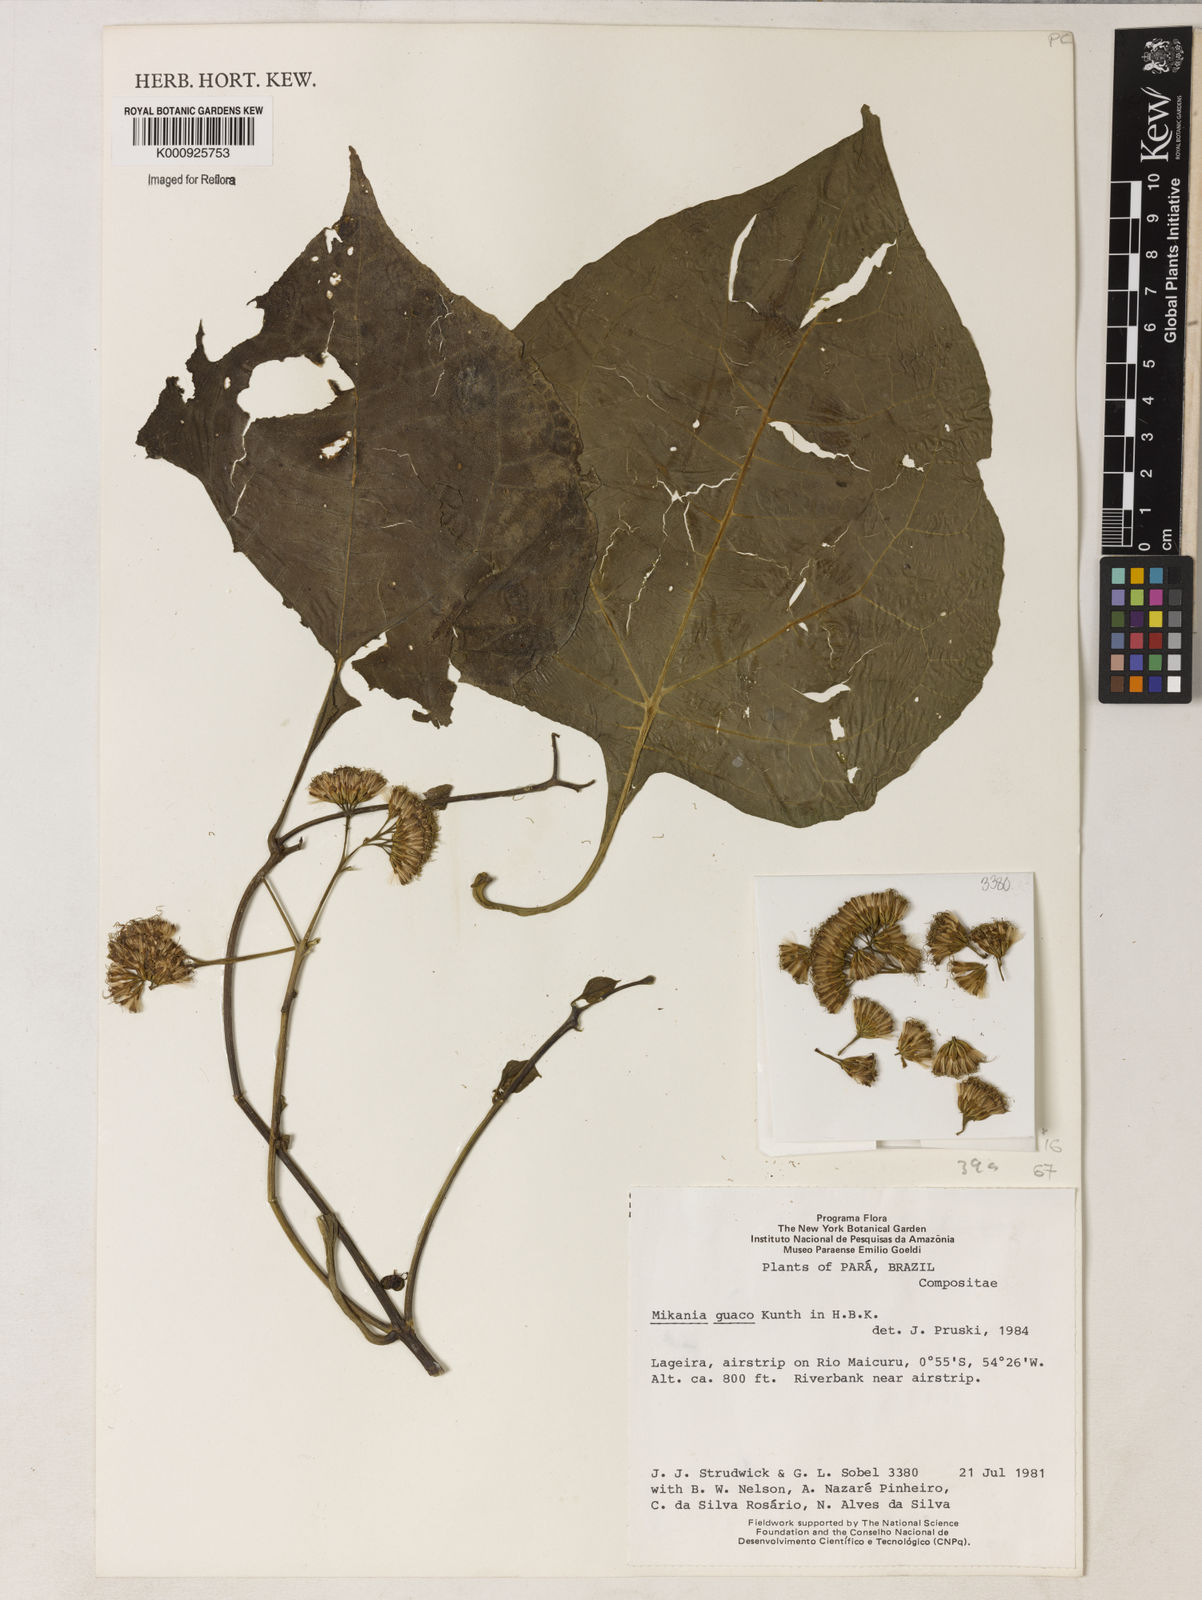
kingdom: Plantae
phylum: Tracheophyta
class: Magnoliopsida
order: Asterales
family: Asteraceae
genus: Mikania
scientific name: Mikania guaco
